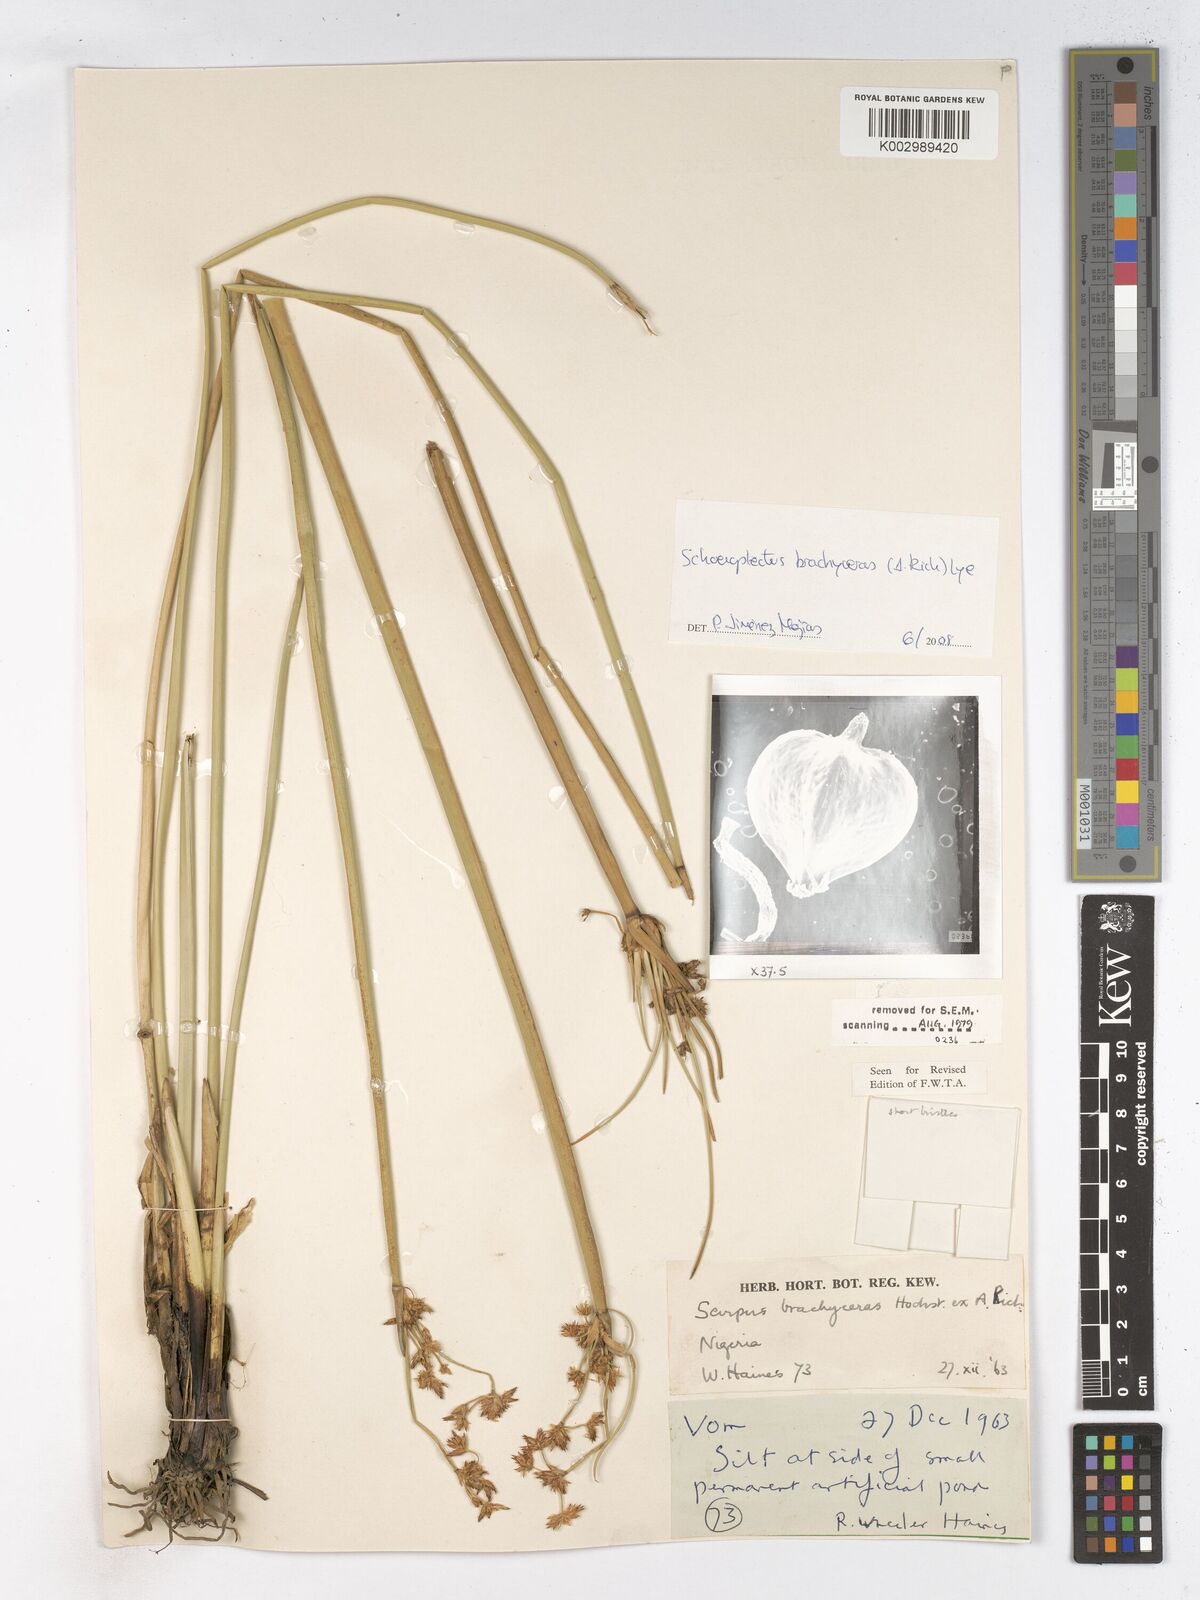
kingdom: Plantae
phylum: Tracheophyta
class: Liliopsida
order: Poales
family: Cyperaceae
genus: Schoenoplectiella
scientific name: Schoenoplectiella corymbosa
